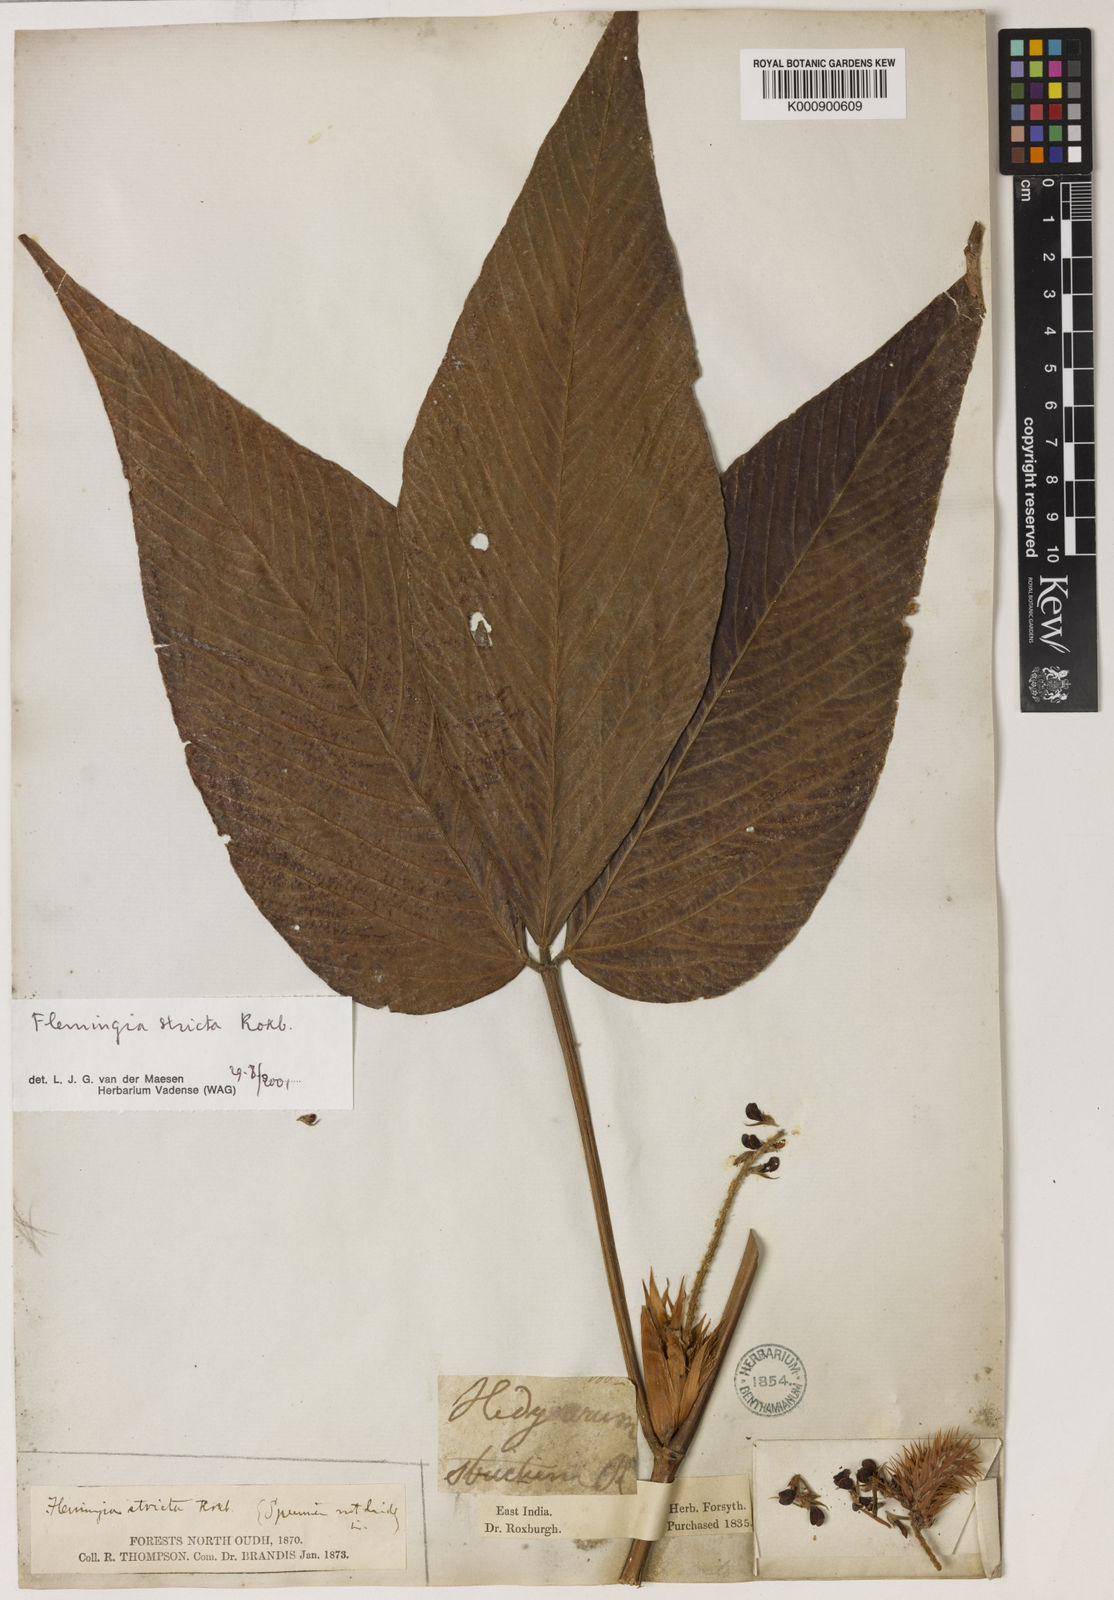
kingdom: Plantae
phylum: Tracheophyta
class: Magnoliopsida
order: Fabales
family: Fabaceae
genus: Flemingia
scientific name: Flemingia stricta
